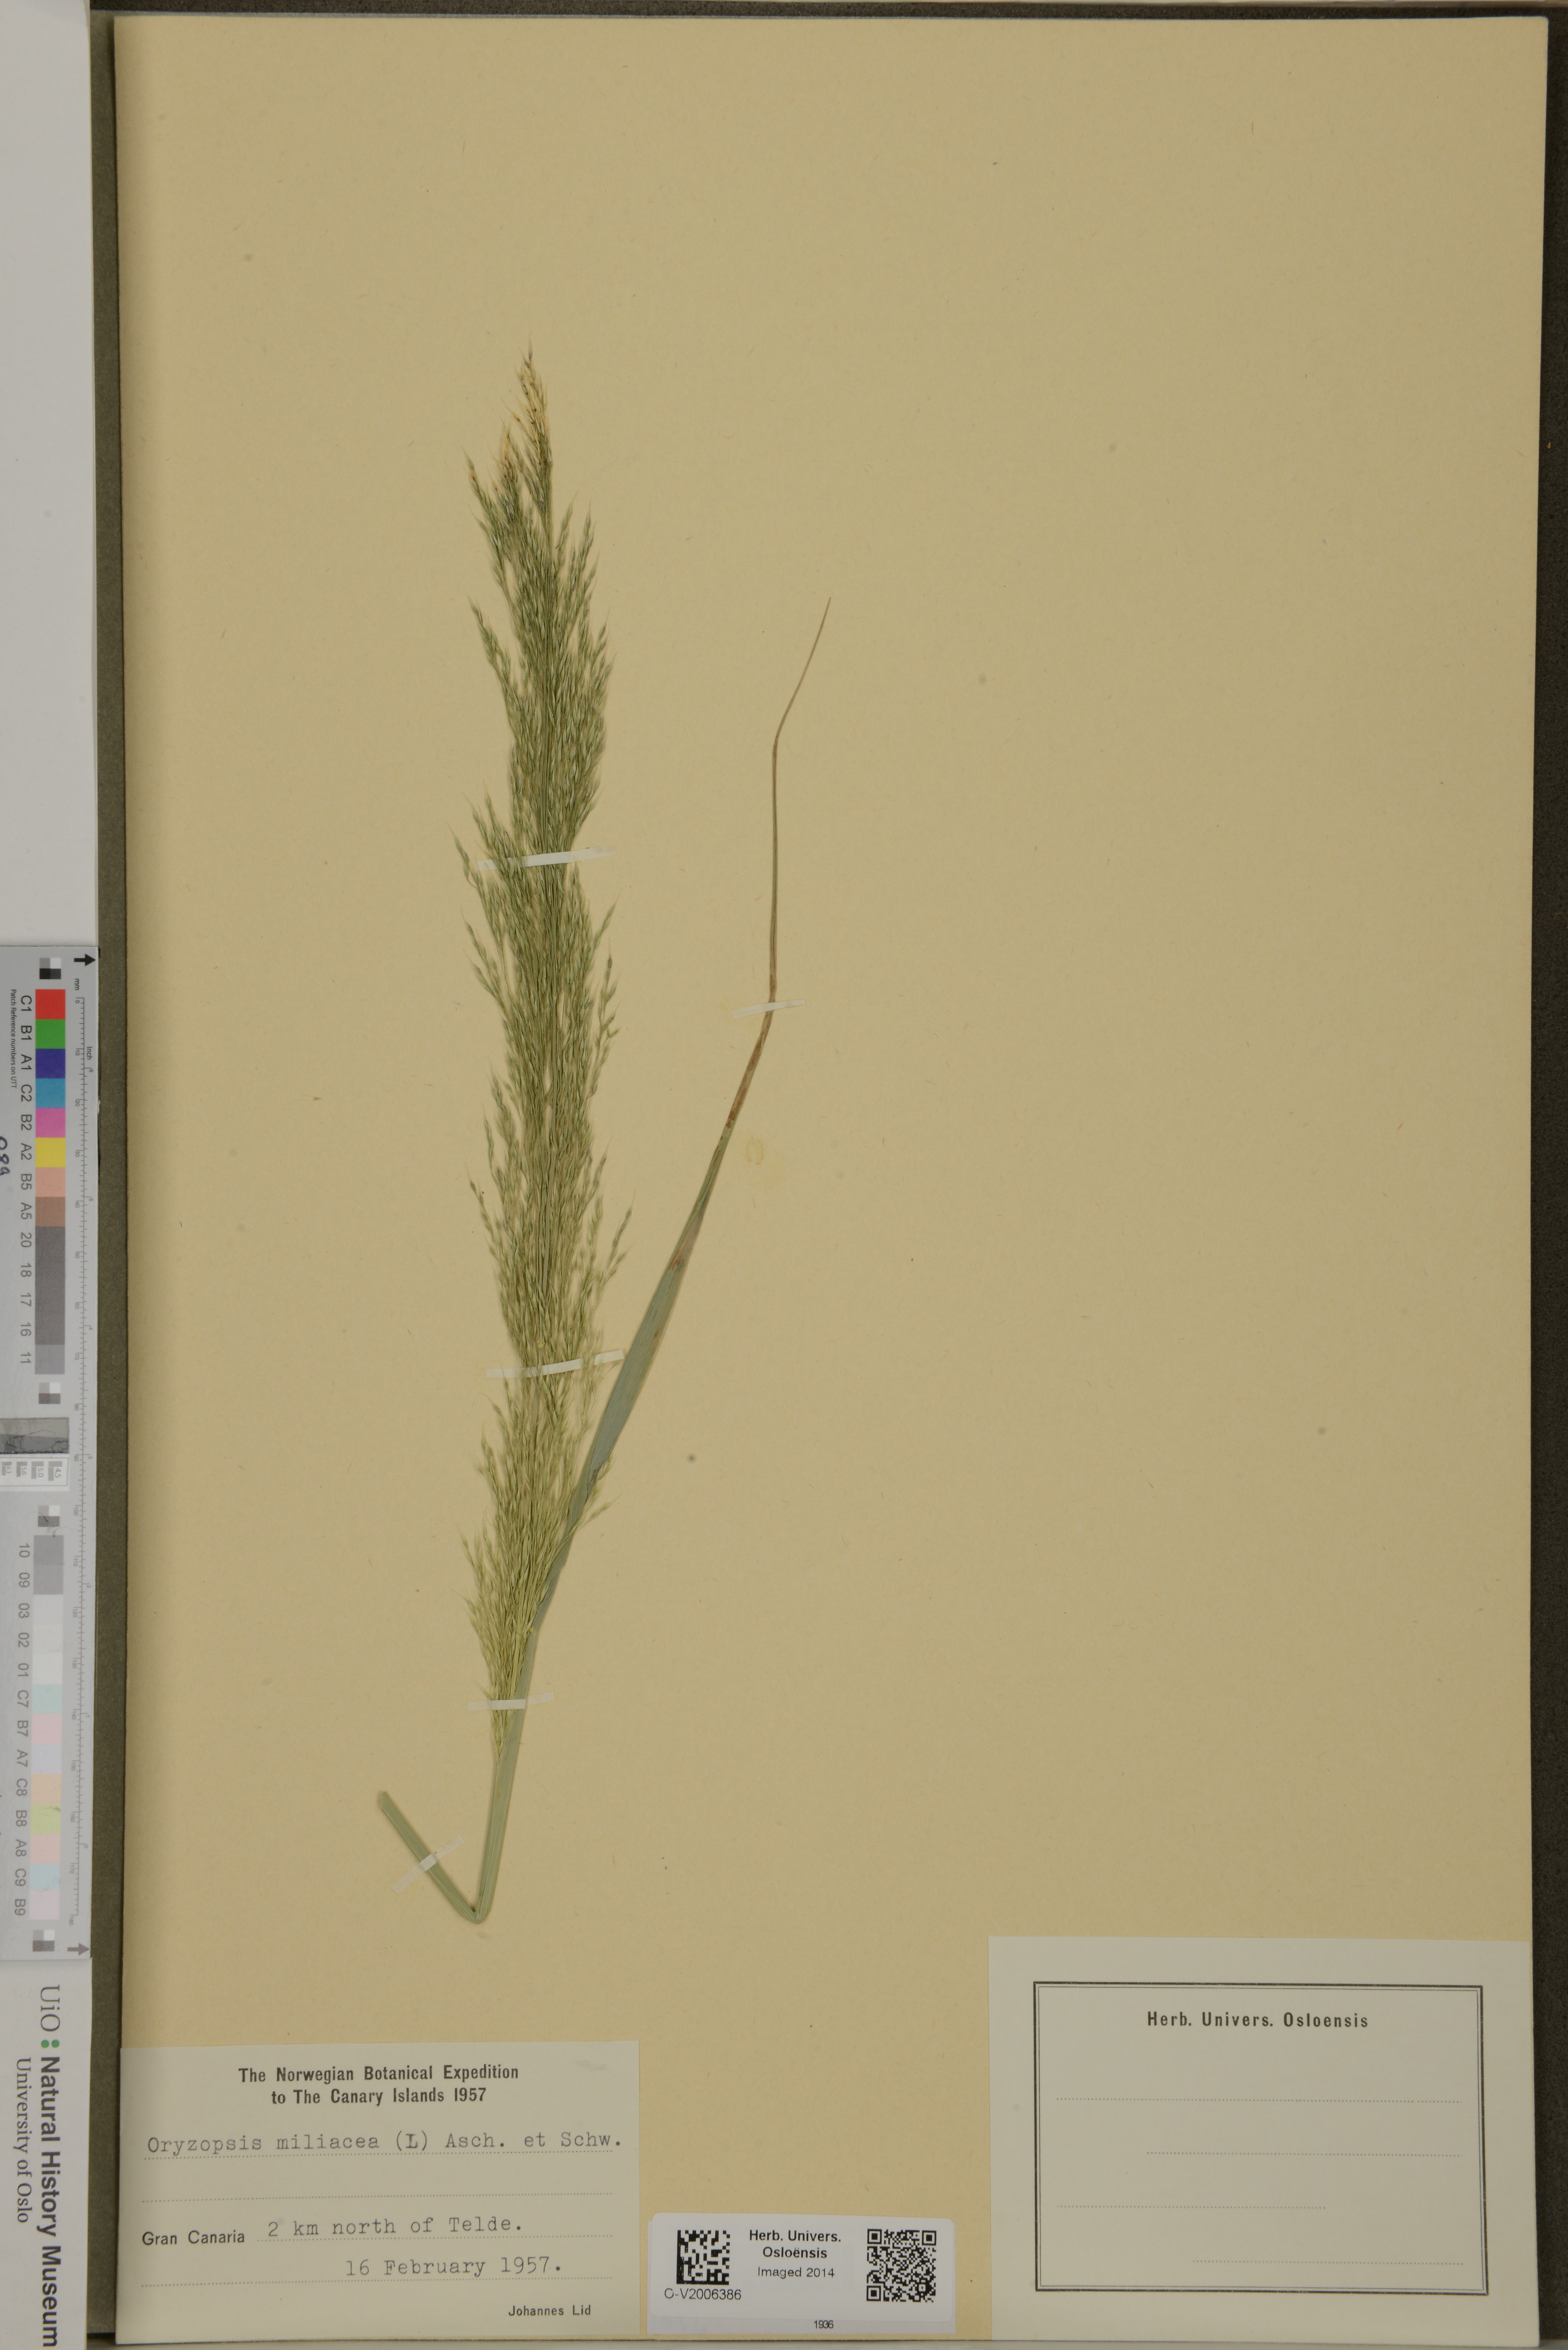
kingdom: Plantae
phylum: Tracheophyta
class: Liliopsida
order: Poales
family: Poaceae
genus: Oloptum
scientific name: Oloptum miliaceum
